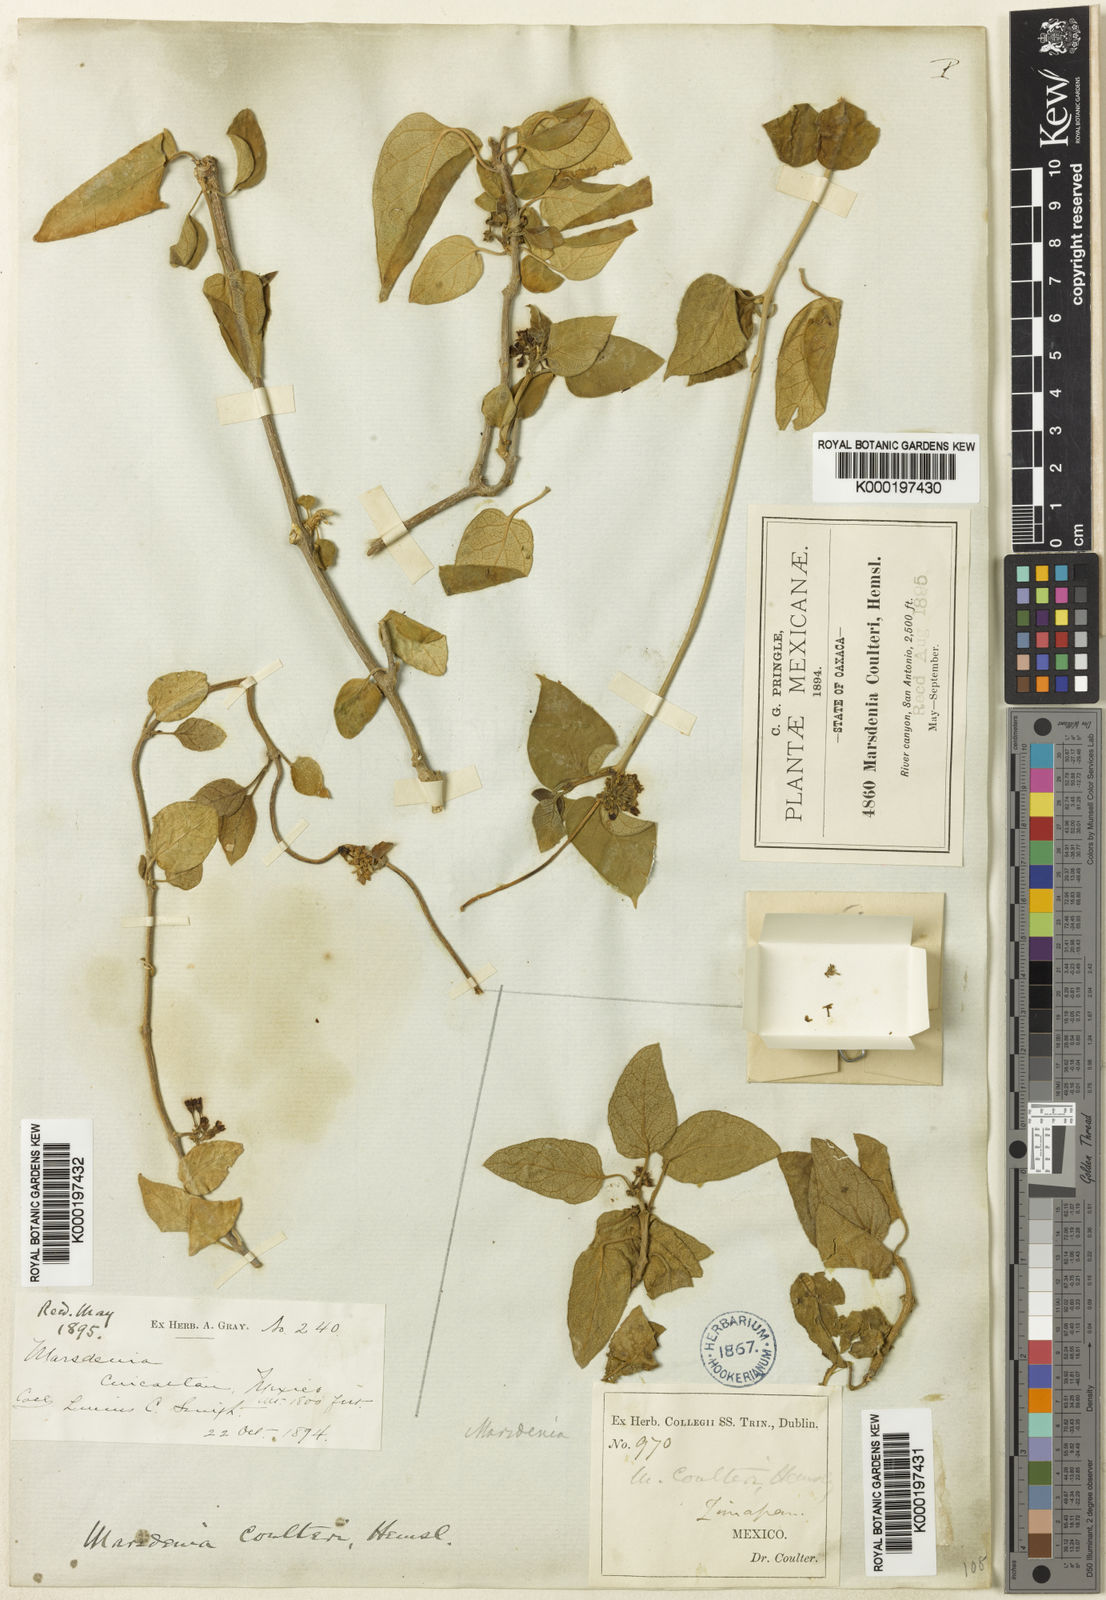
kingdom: Plantae
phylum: Tracheophyta
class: Magnoliopsida
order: Gentianales
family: Apocynaceae
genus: Ruehssia
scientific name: Ruehssia coulteri
